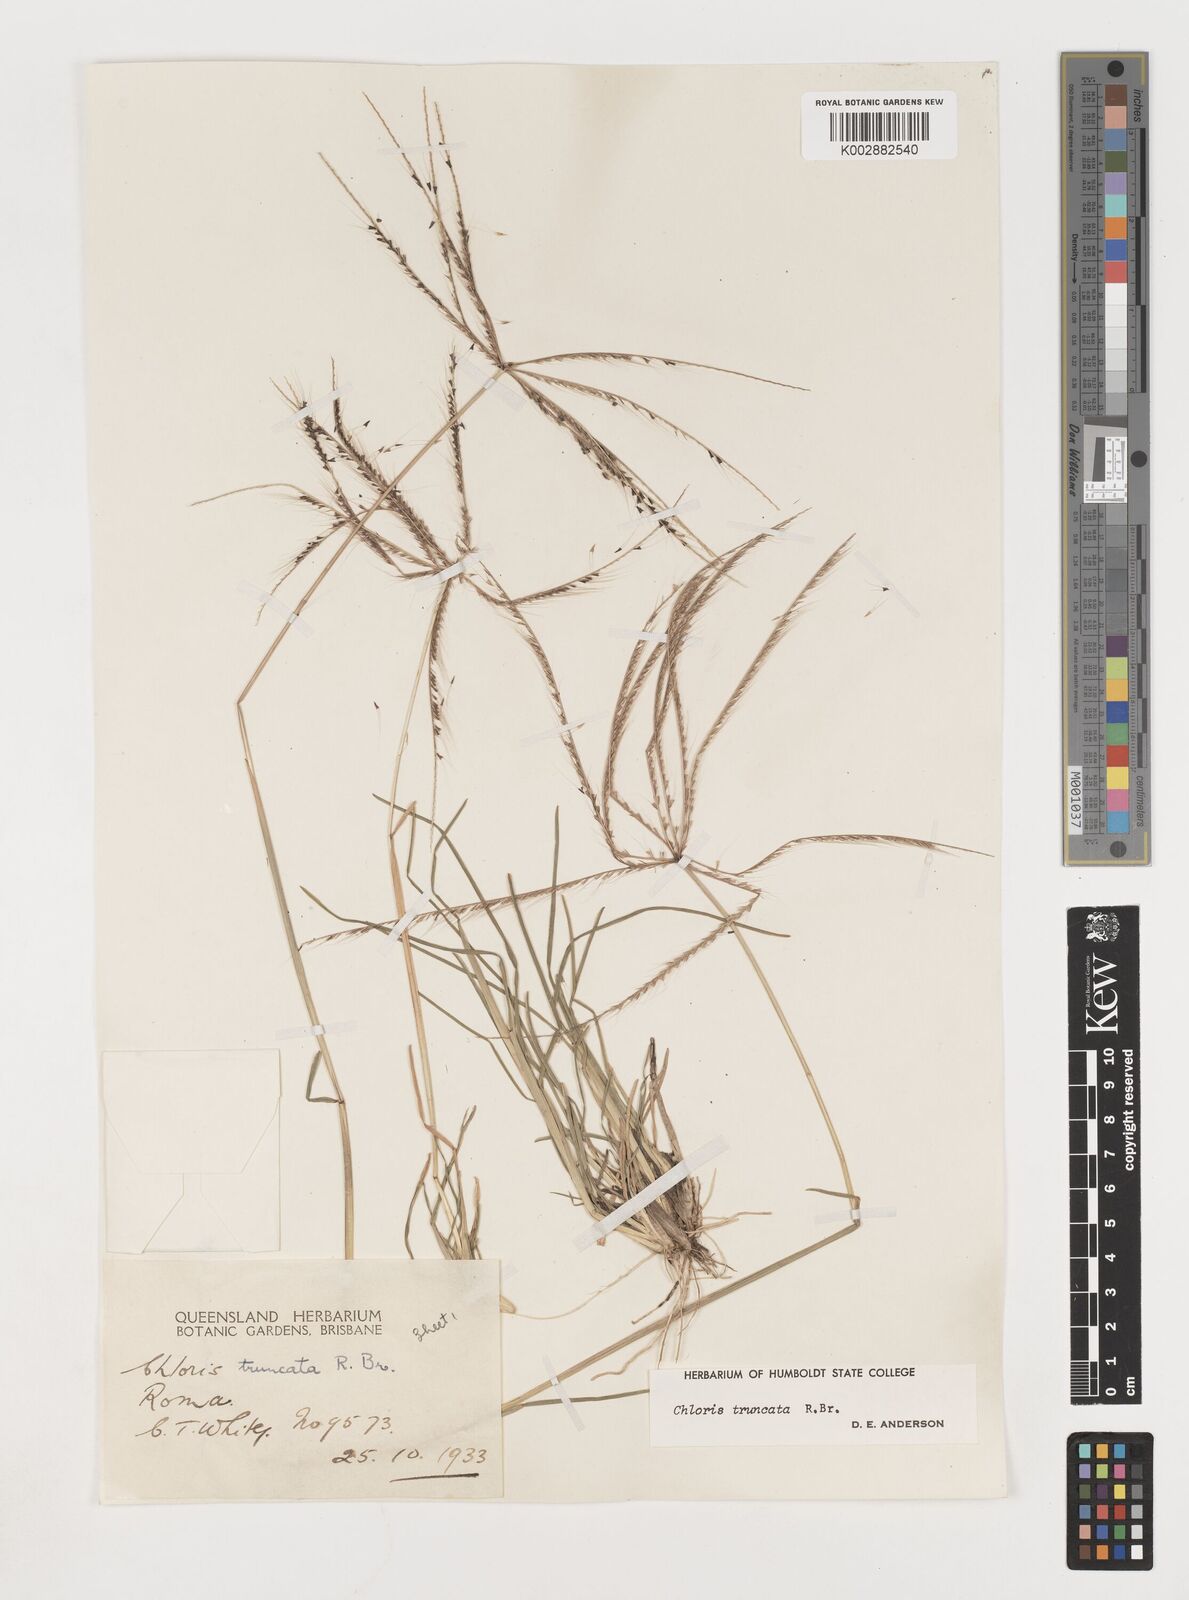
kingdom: Plantae
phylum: Tracheophyta
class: Liliopsida
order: Poales
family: Poaceae
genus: Chloris
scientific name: Chloris truncata
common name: Windmill-grass
